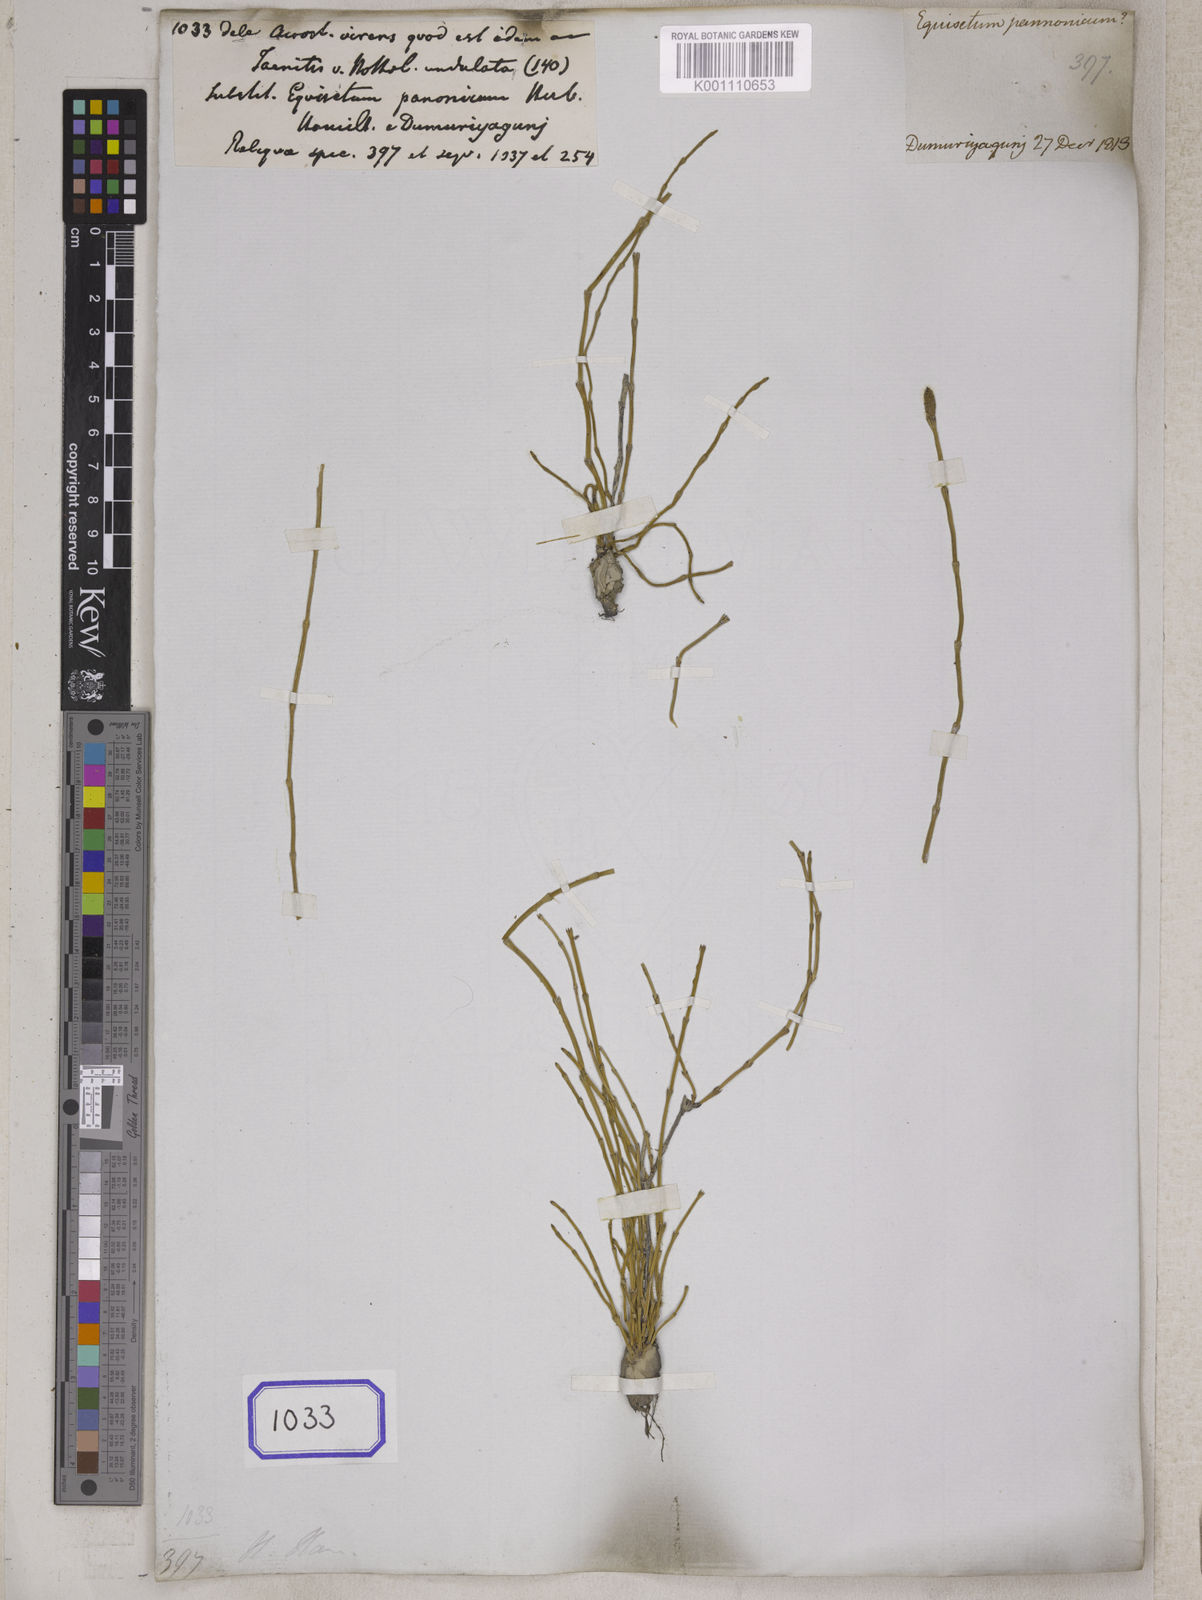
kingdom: Plantae
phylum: Tracheophyta
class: Polypodiopsida
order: Equisetales
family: Equisetaceae
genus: Equisetum
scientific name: Equisetum
